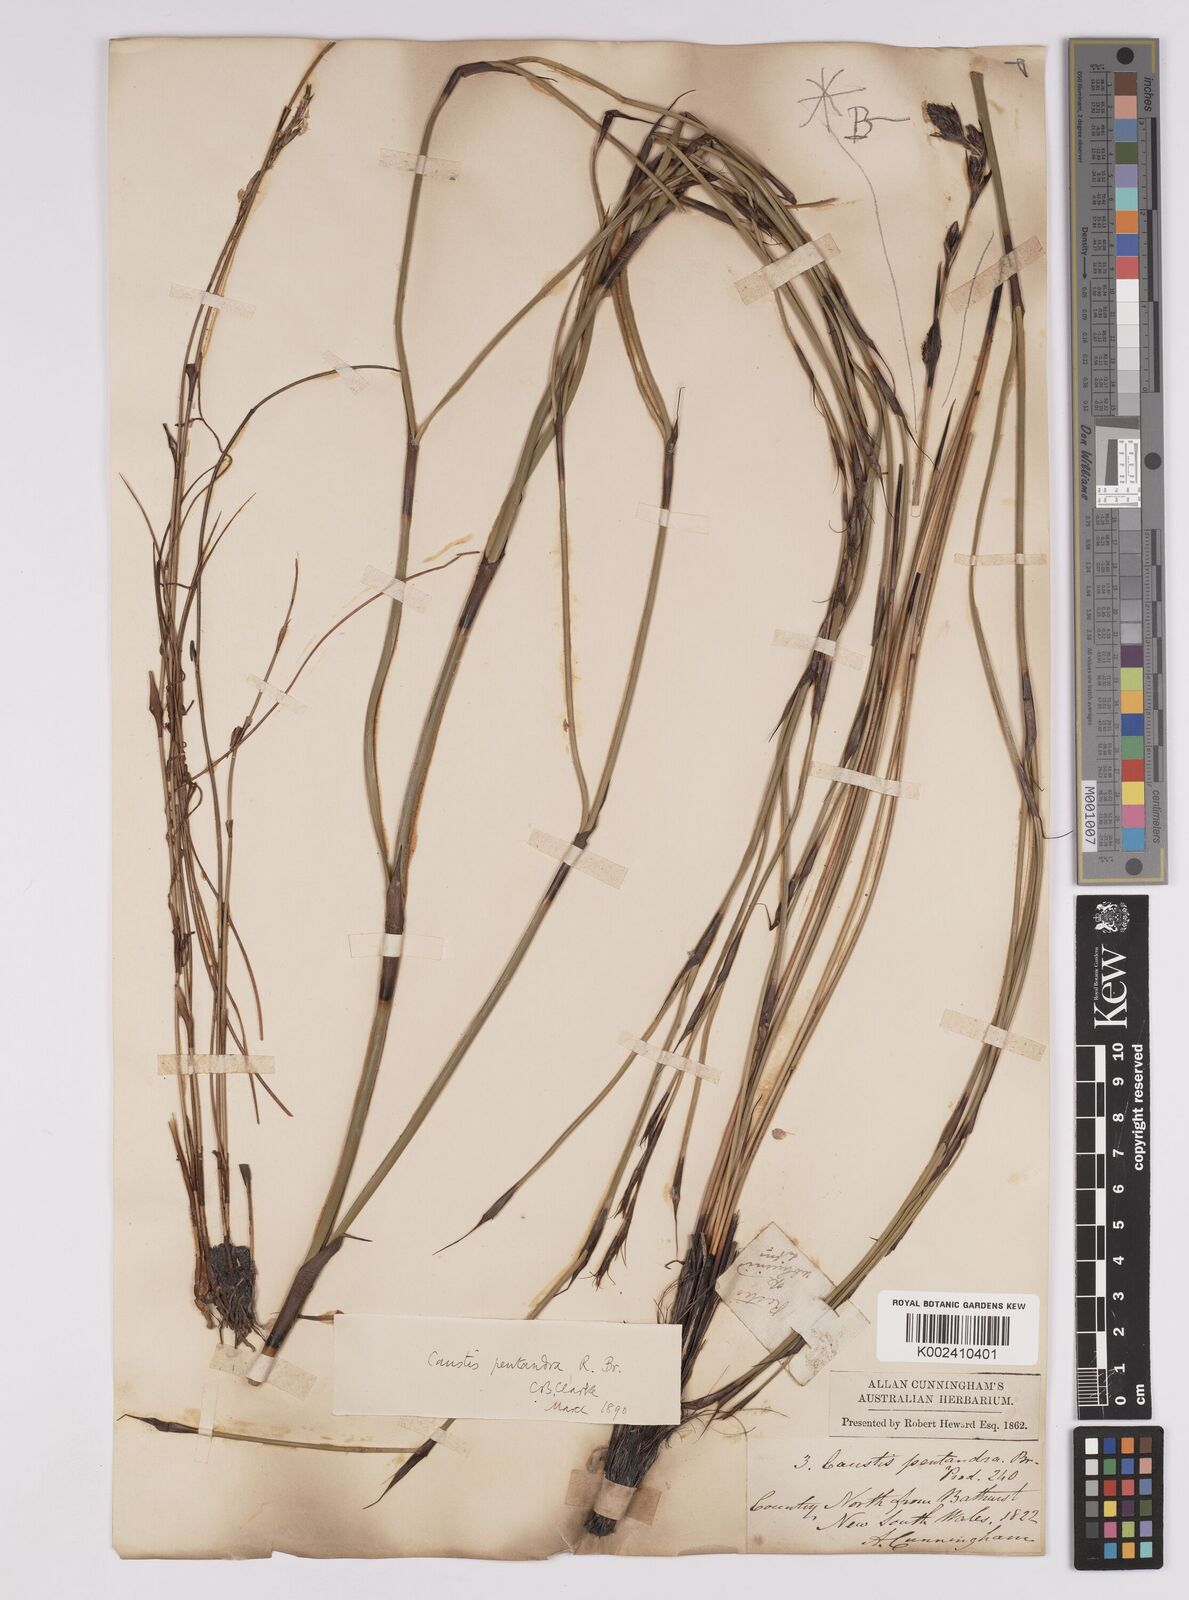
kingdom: Plantae
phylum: Tracheophyta
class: Liliopsida
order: Poales
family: Cyperaceae
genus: Caustis
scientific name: Caustis pentandra
